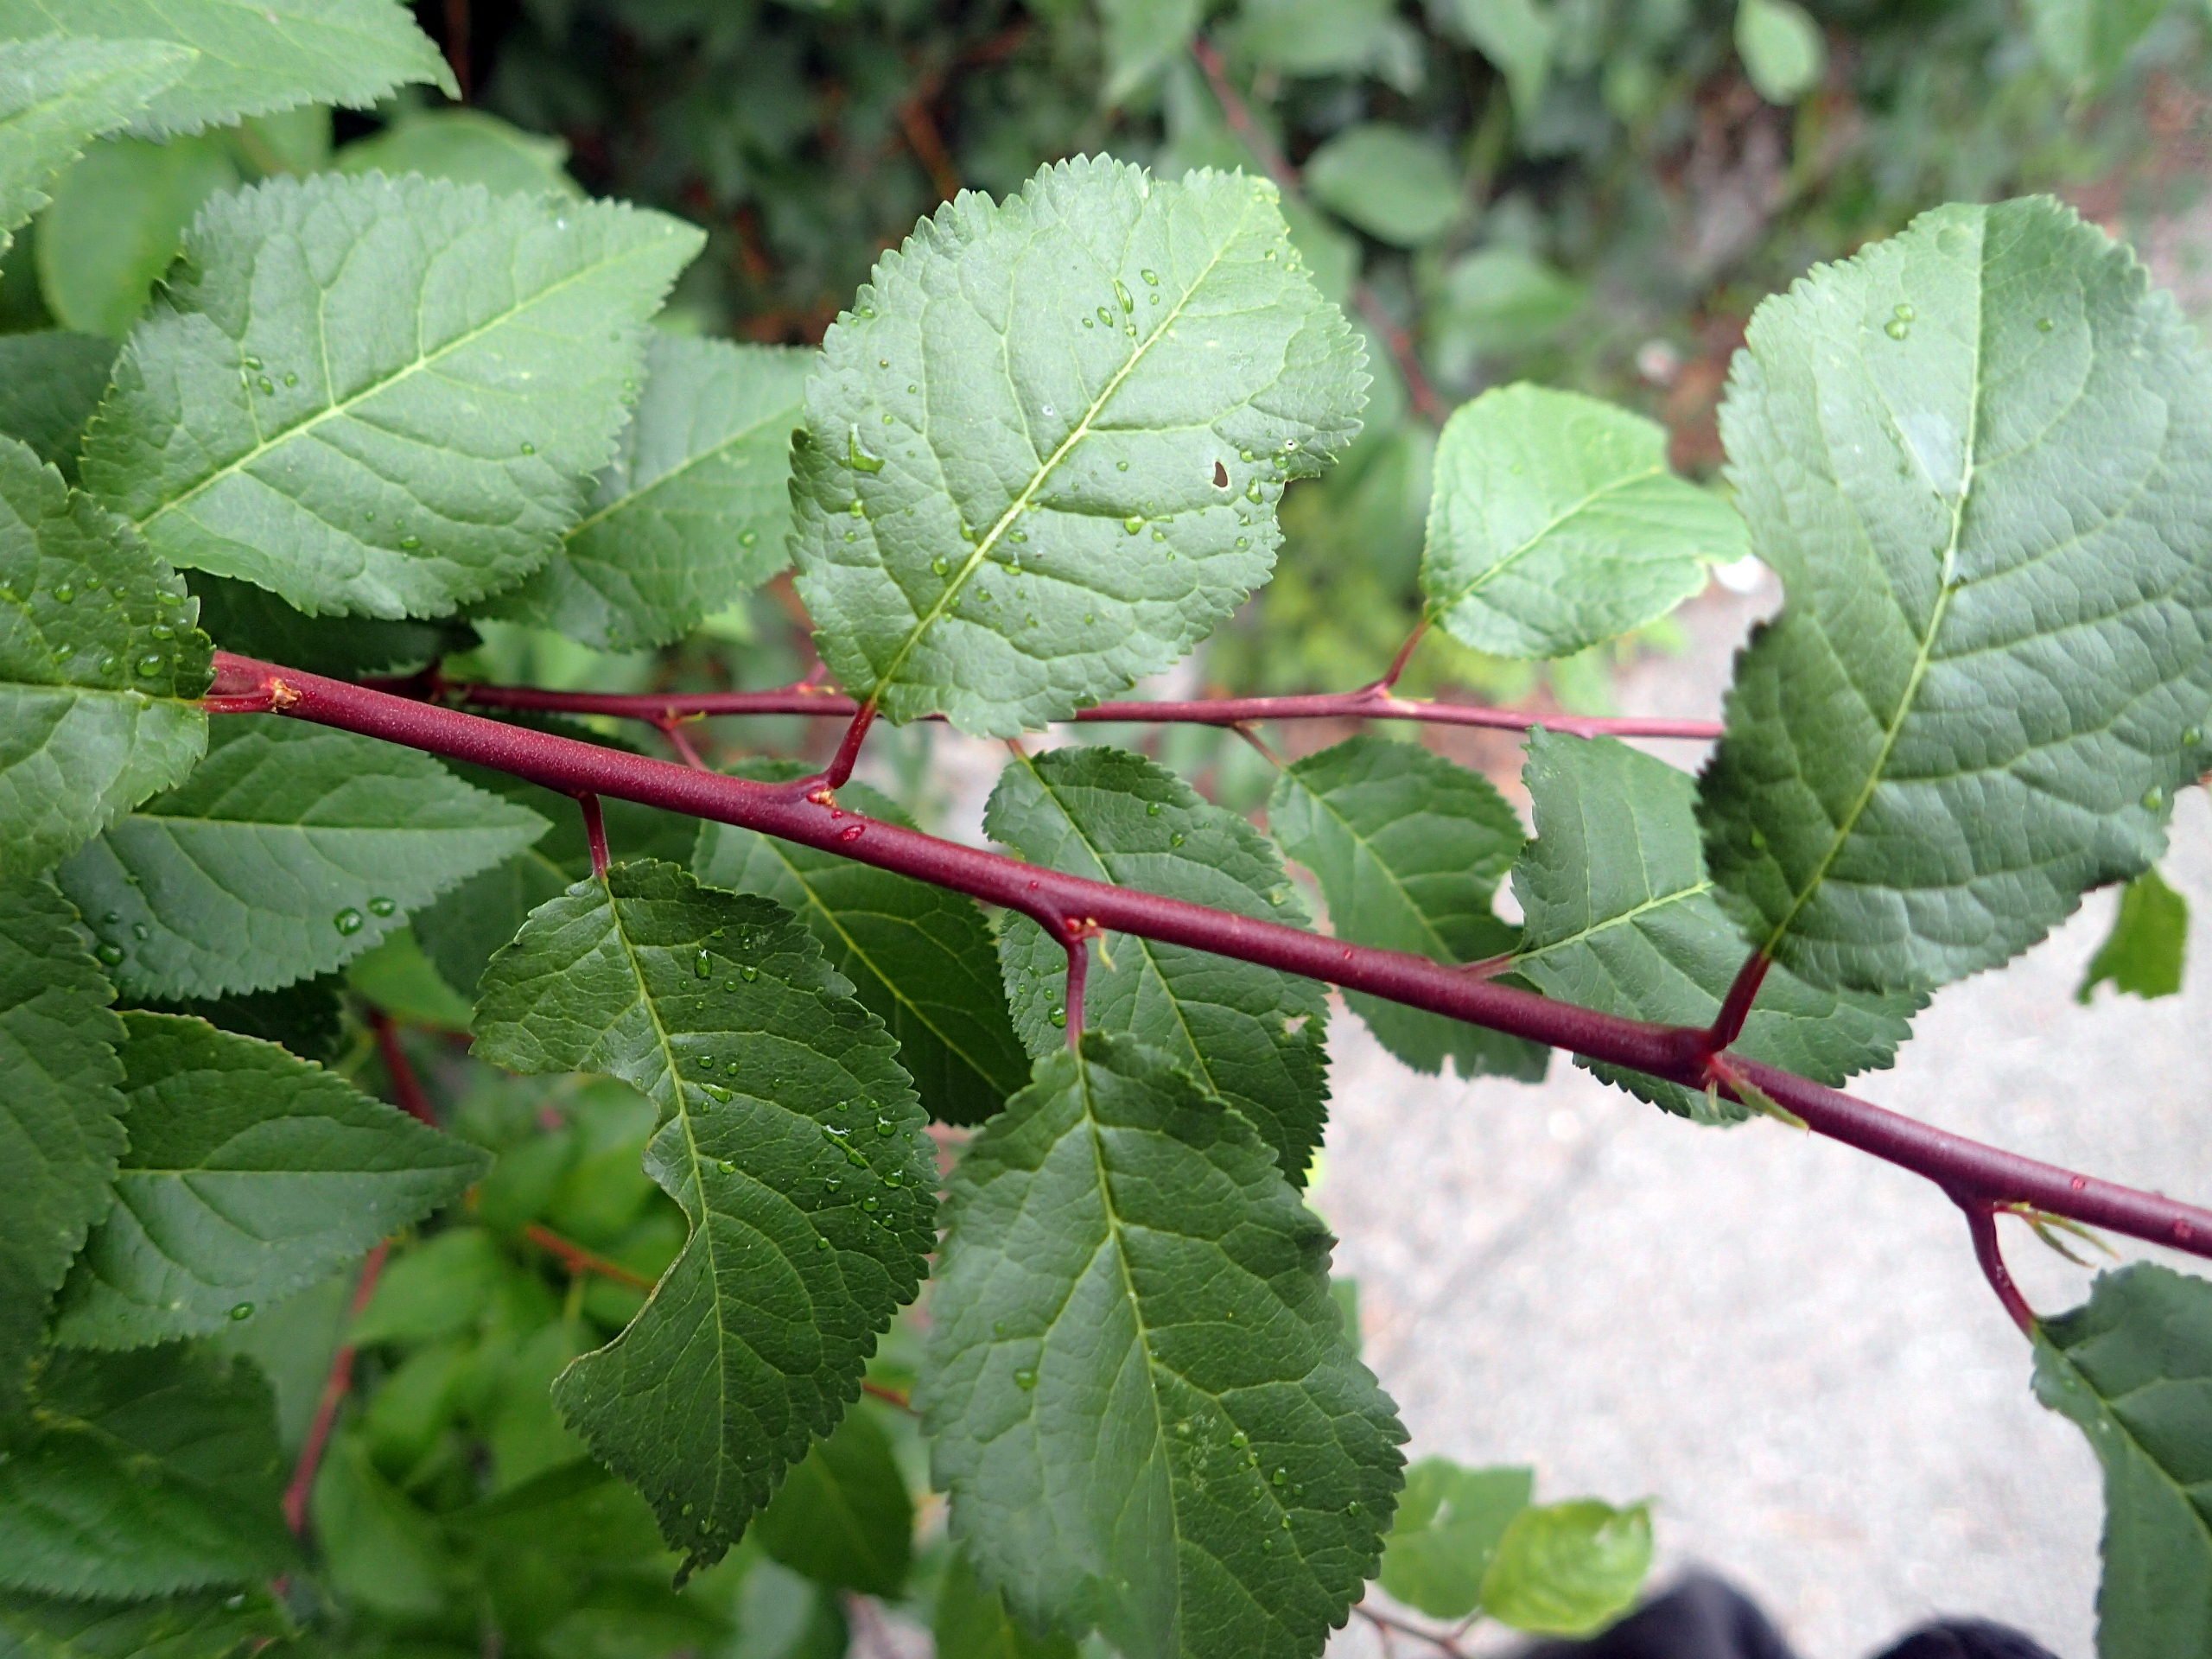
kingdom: Plantae
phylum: Tracheophyta
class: Magnoliopsida
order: Rosales
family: Rosaceae
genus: Prunus
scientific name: Prunus cerasifera
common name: Mirabel
